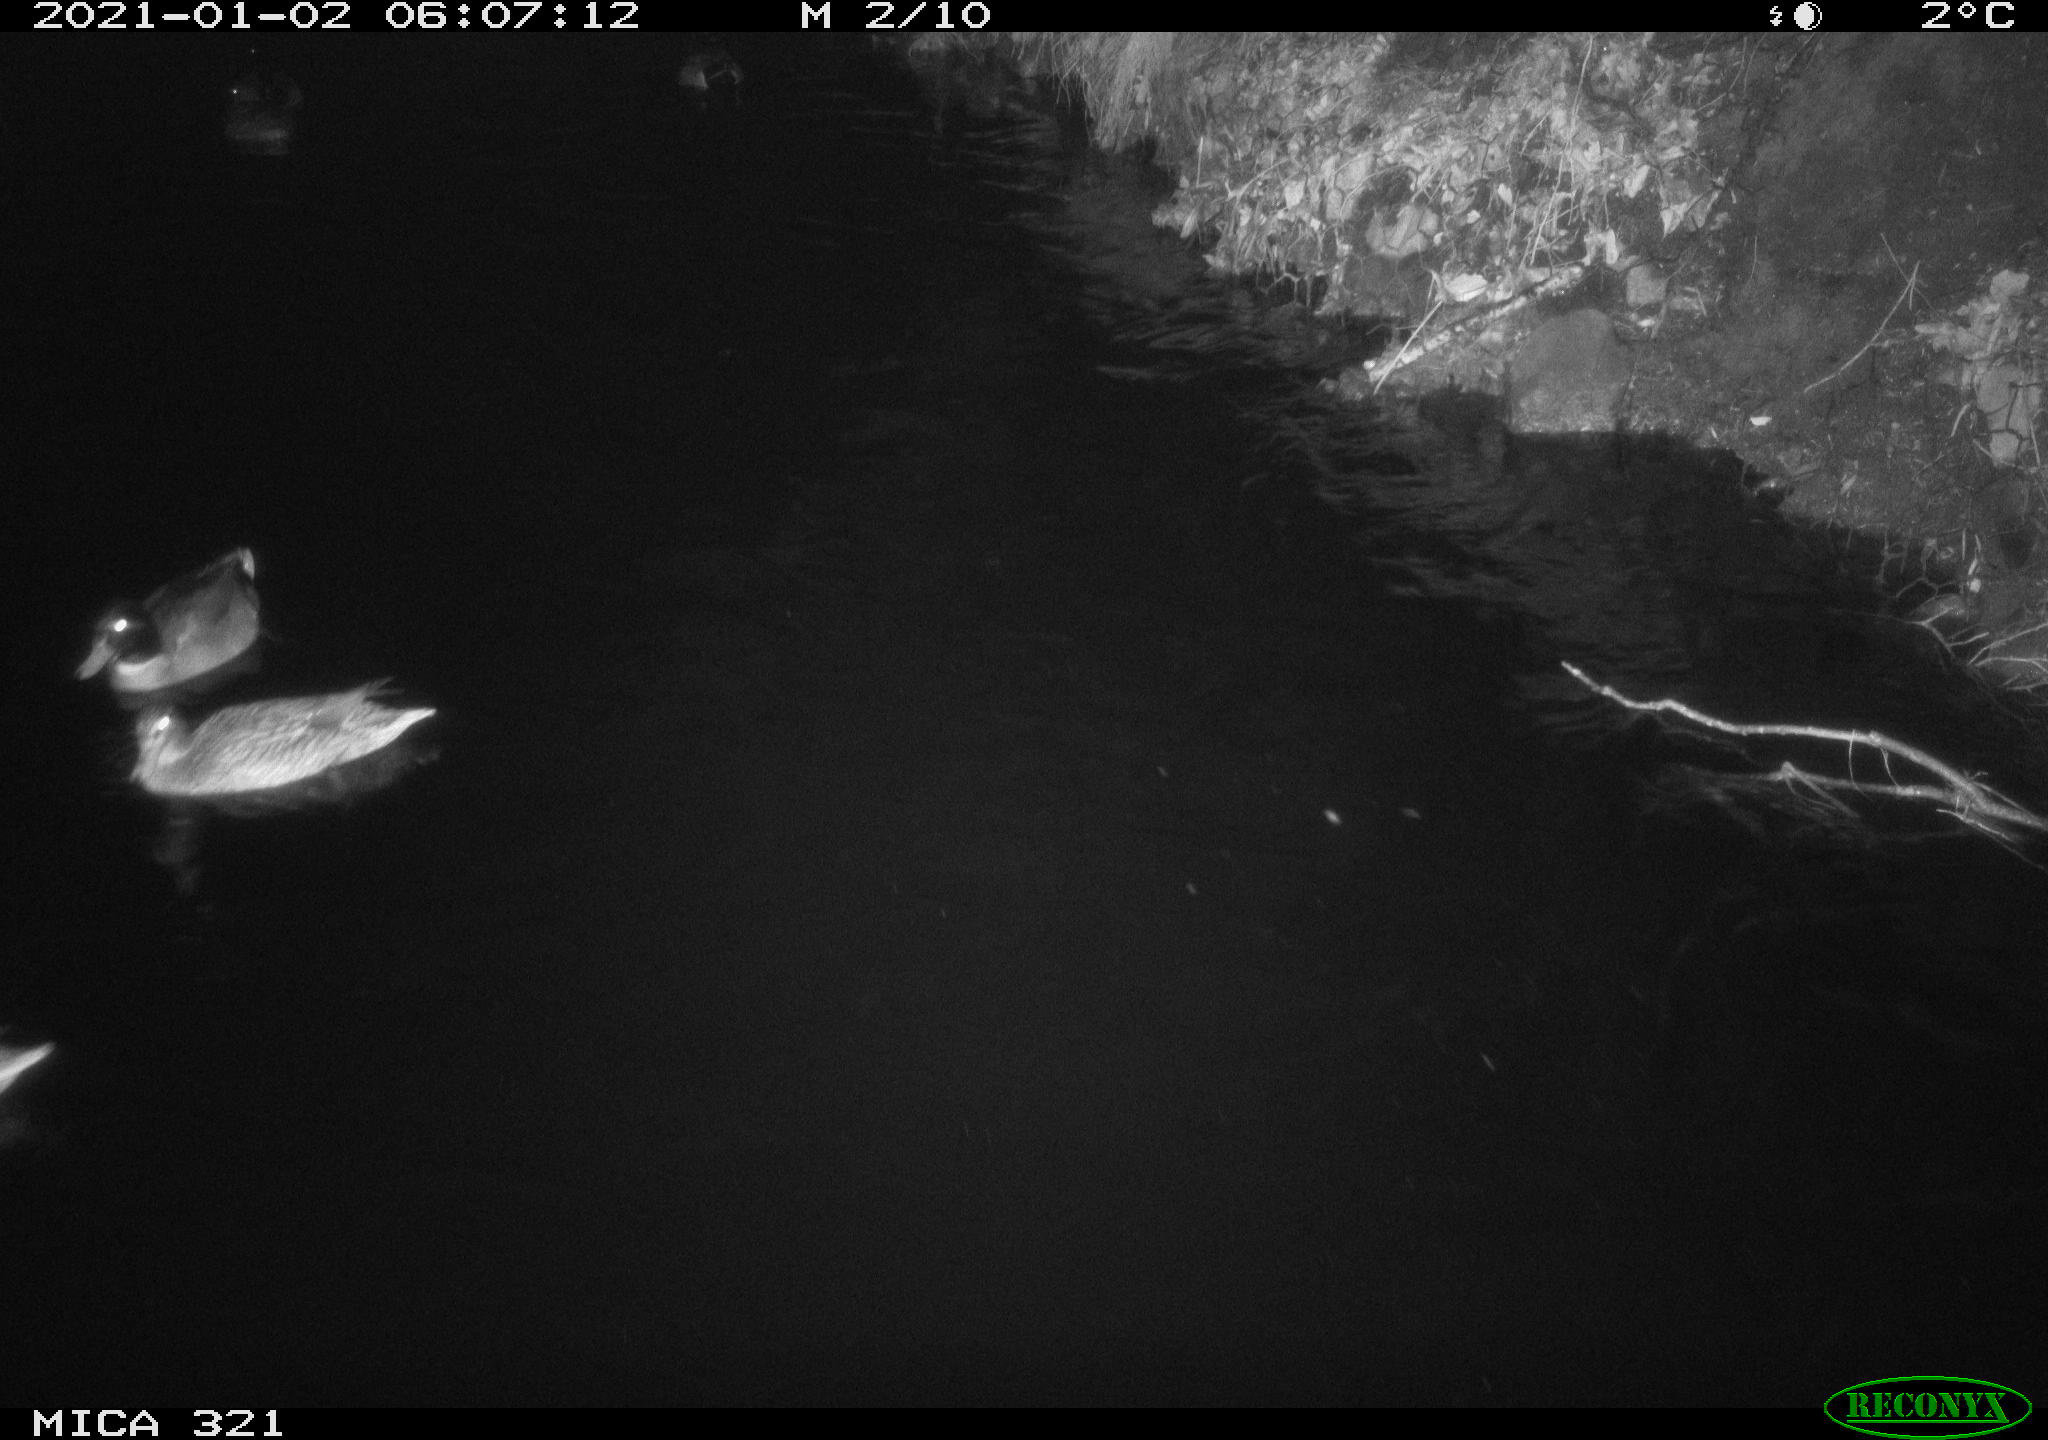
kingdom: Animalia
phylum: Chordata
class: Aves
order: Anseriformes
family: Anatidae
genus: Anas
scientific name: Anas platyrhynchos
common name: Mallard
